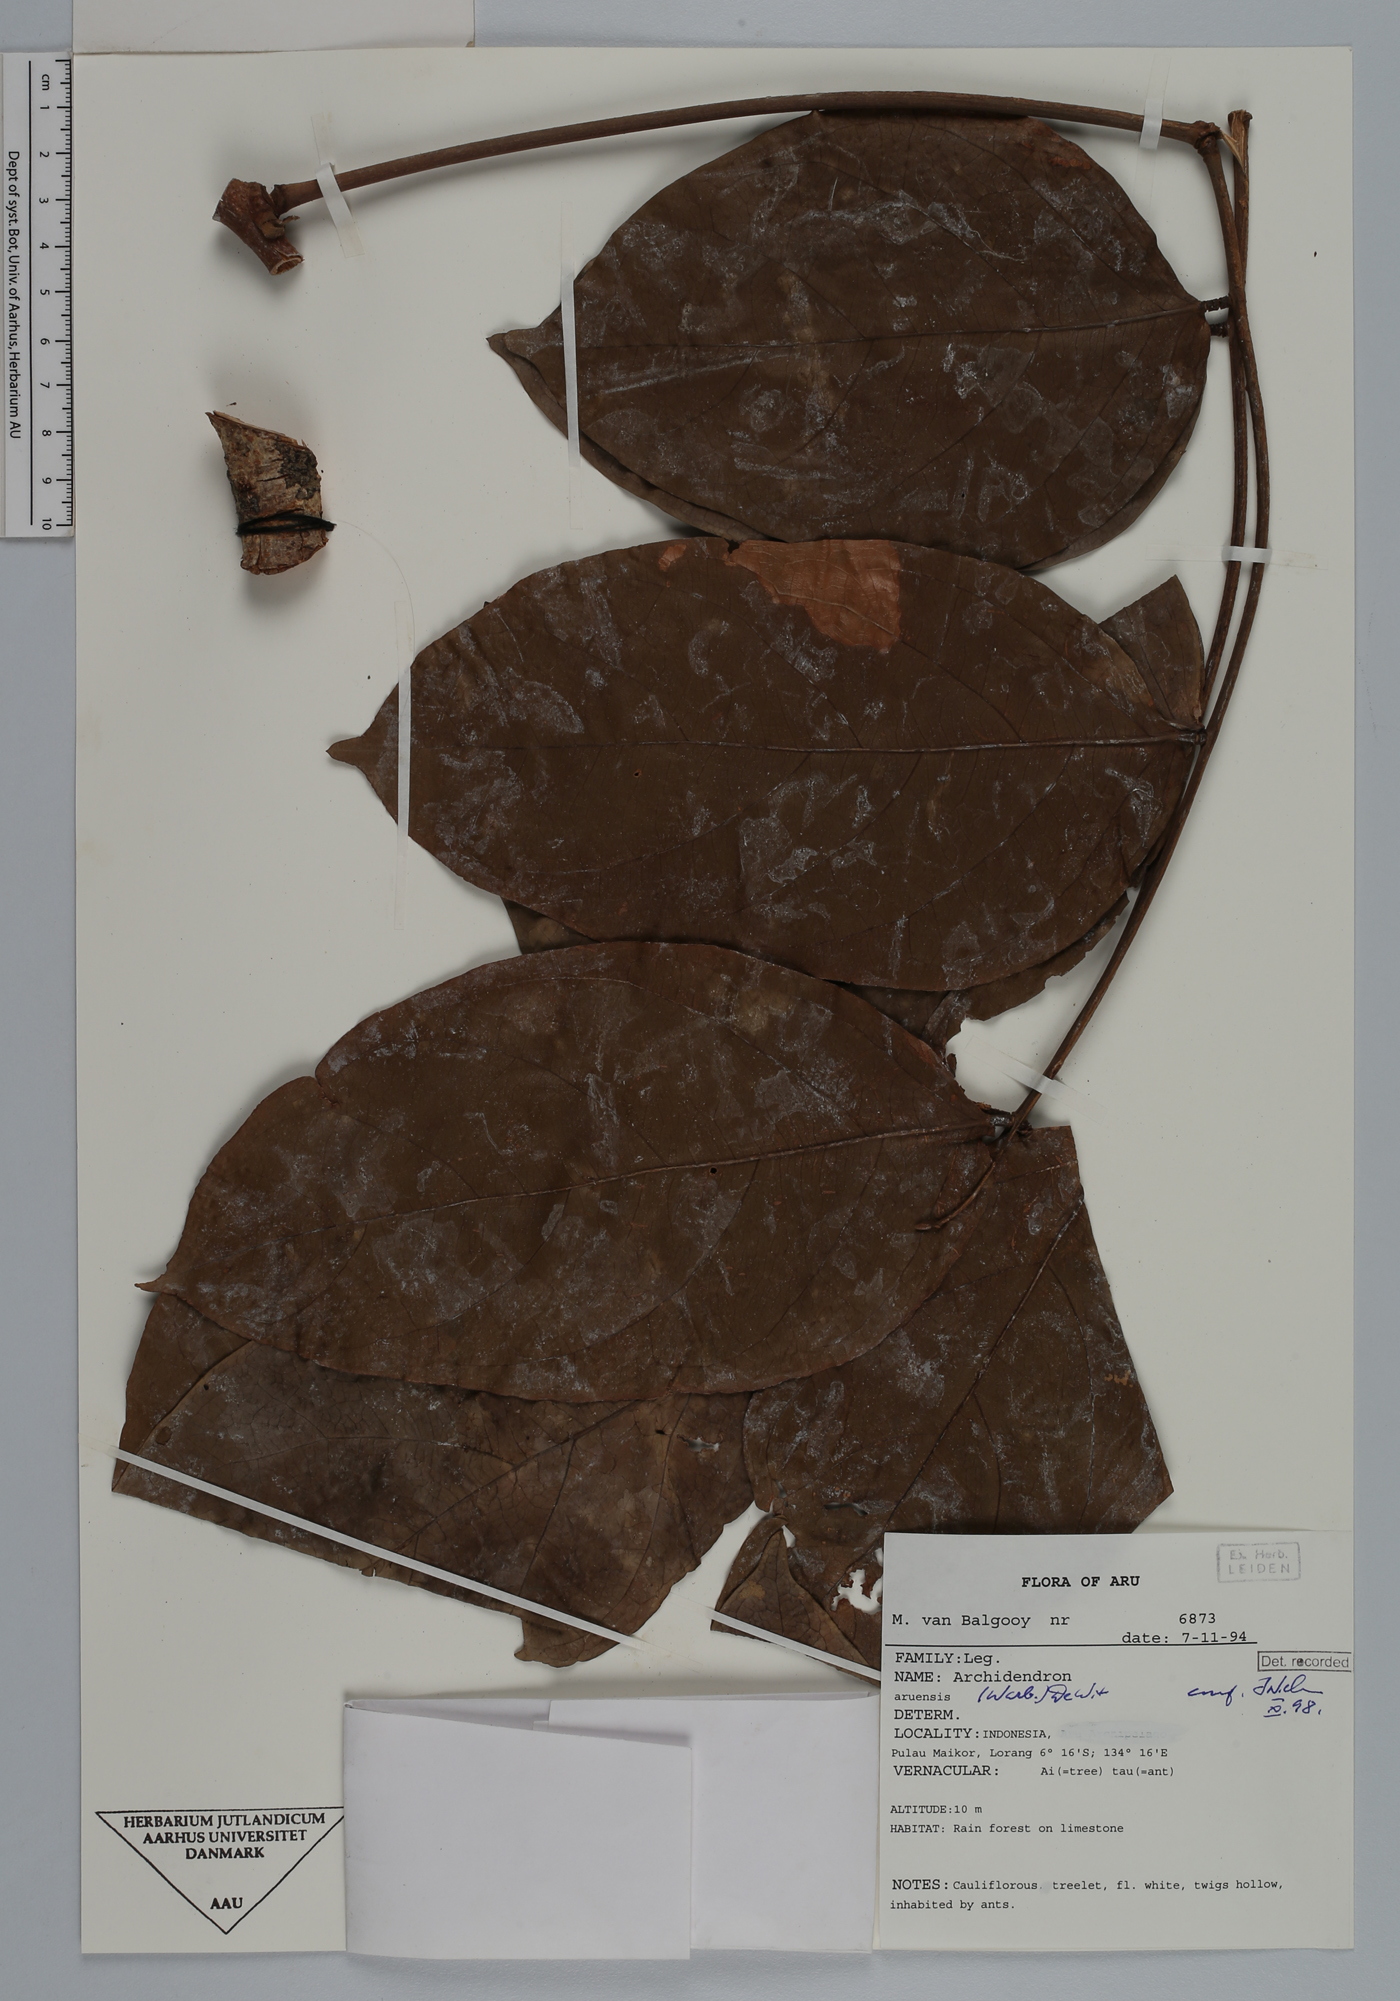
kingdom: Plantae
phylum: Tracheophyta
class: Magnoliopsida
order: Fabales
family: Fabaceae
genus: Archidendron
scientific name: Archidendron aruense
